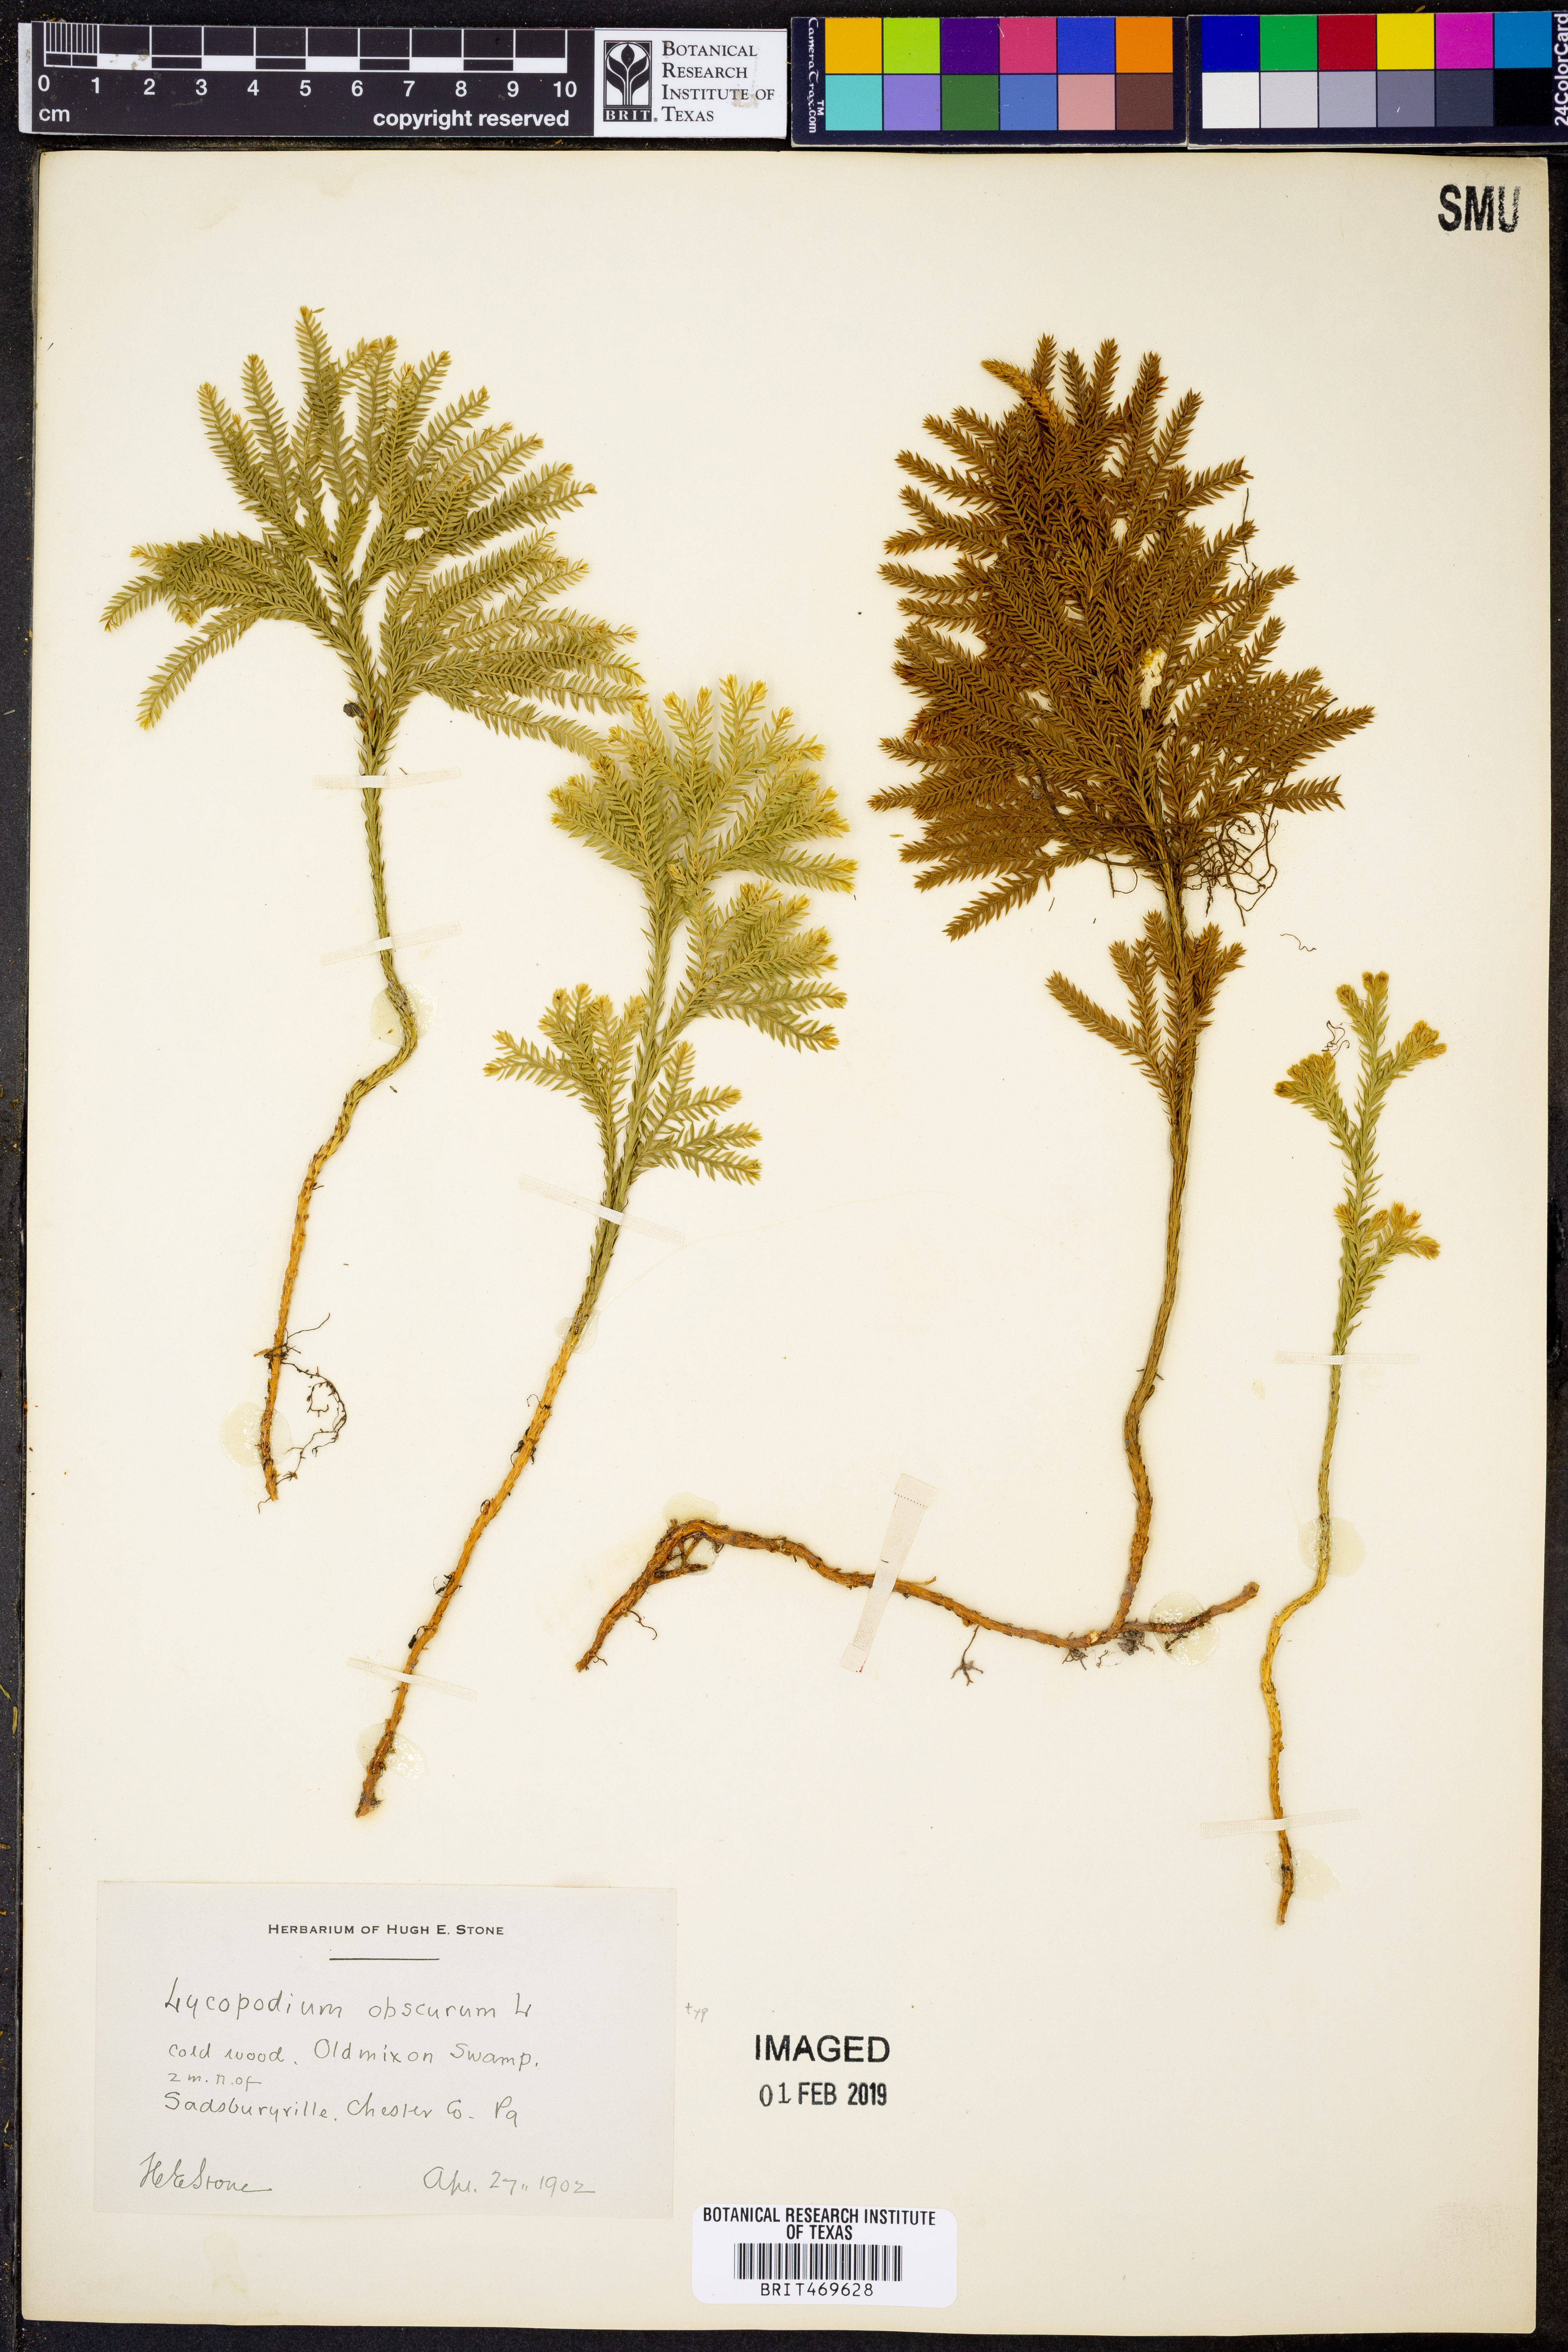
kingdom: Plantae
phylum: Tracheophyta
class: Lycopodiopsida
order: Lycopodiales
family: Lycopodiaceae
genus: Dendrolycopodium
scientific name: Dendrolycopodium obscurum
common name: Common ground-pine
